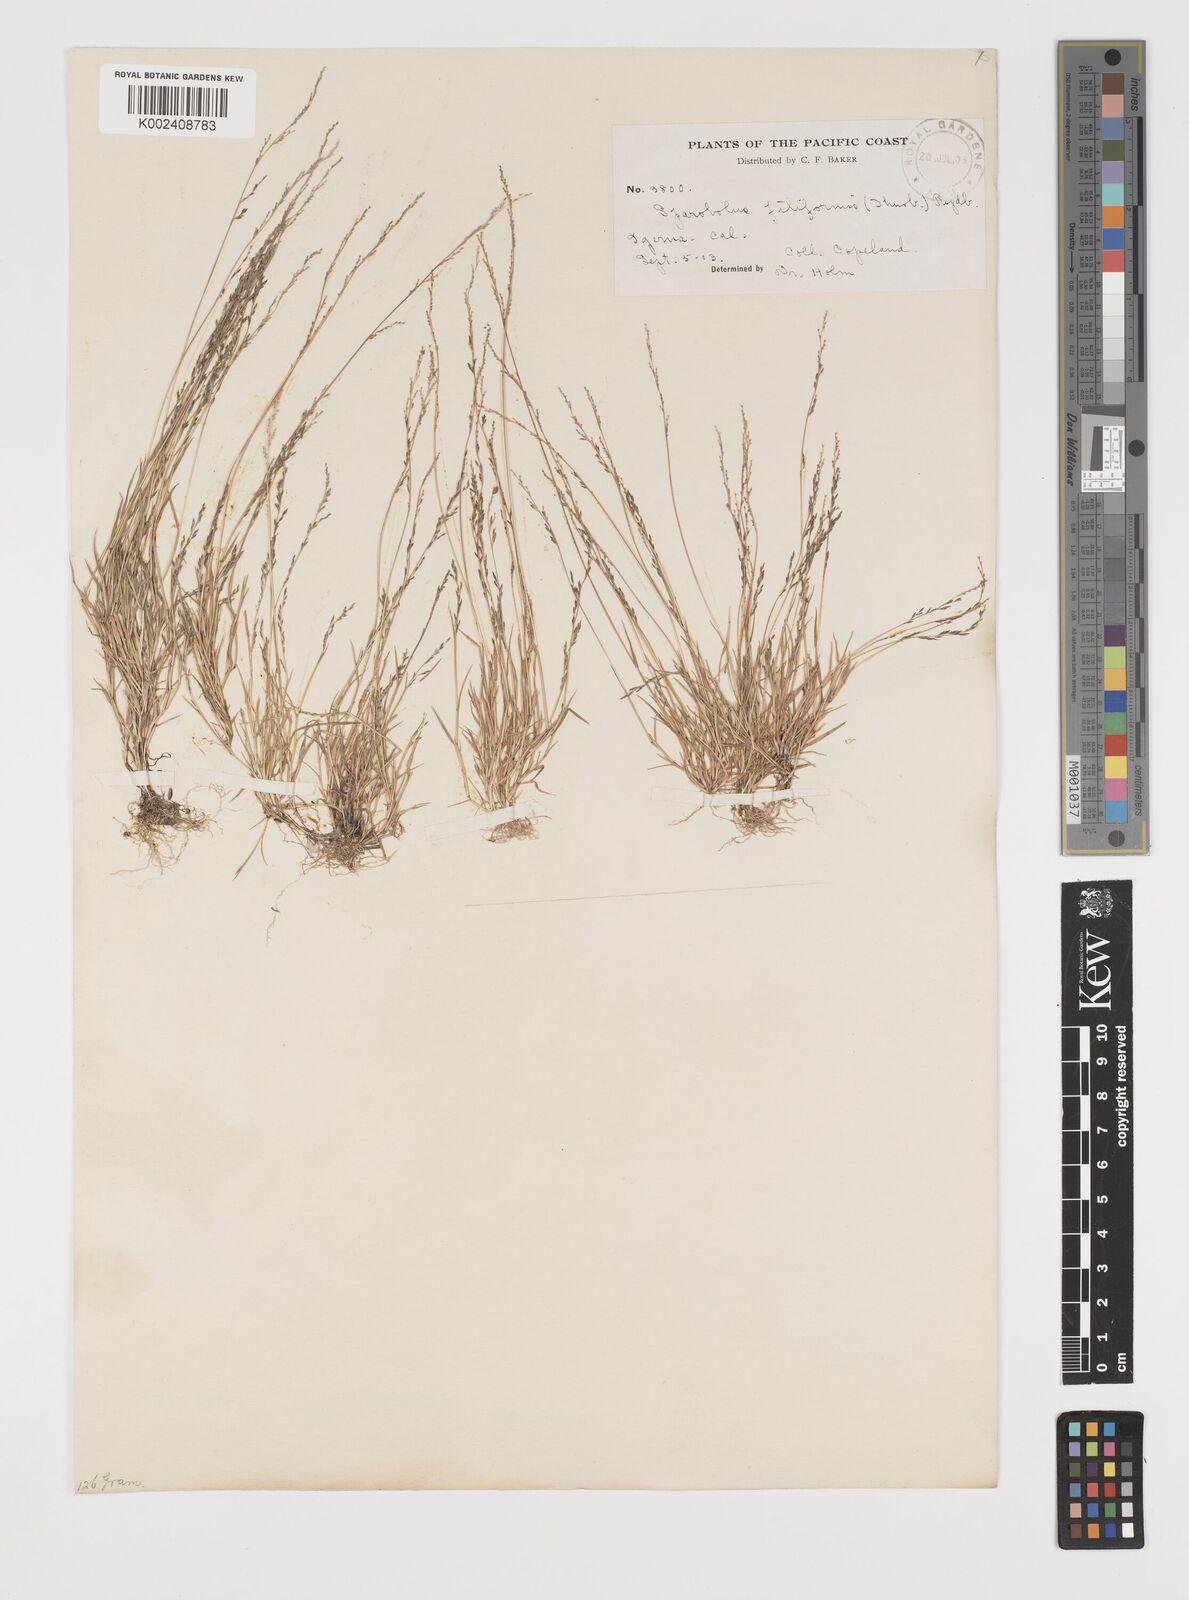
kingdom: Plantae
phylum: Tracheophyta
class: Liliopsida
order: Poales
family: Poaceae
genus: Leptochloa
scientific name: Leptochloa mucronata
